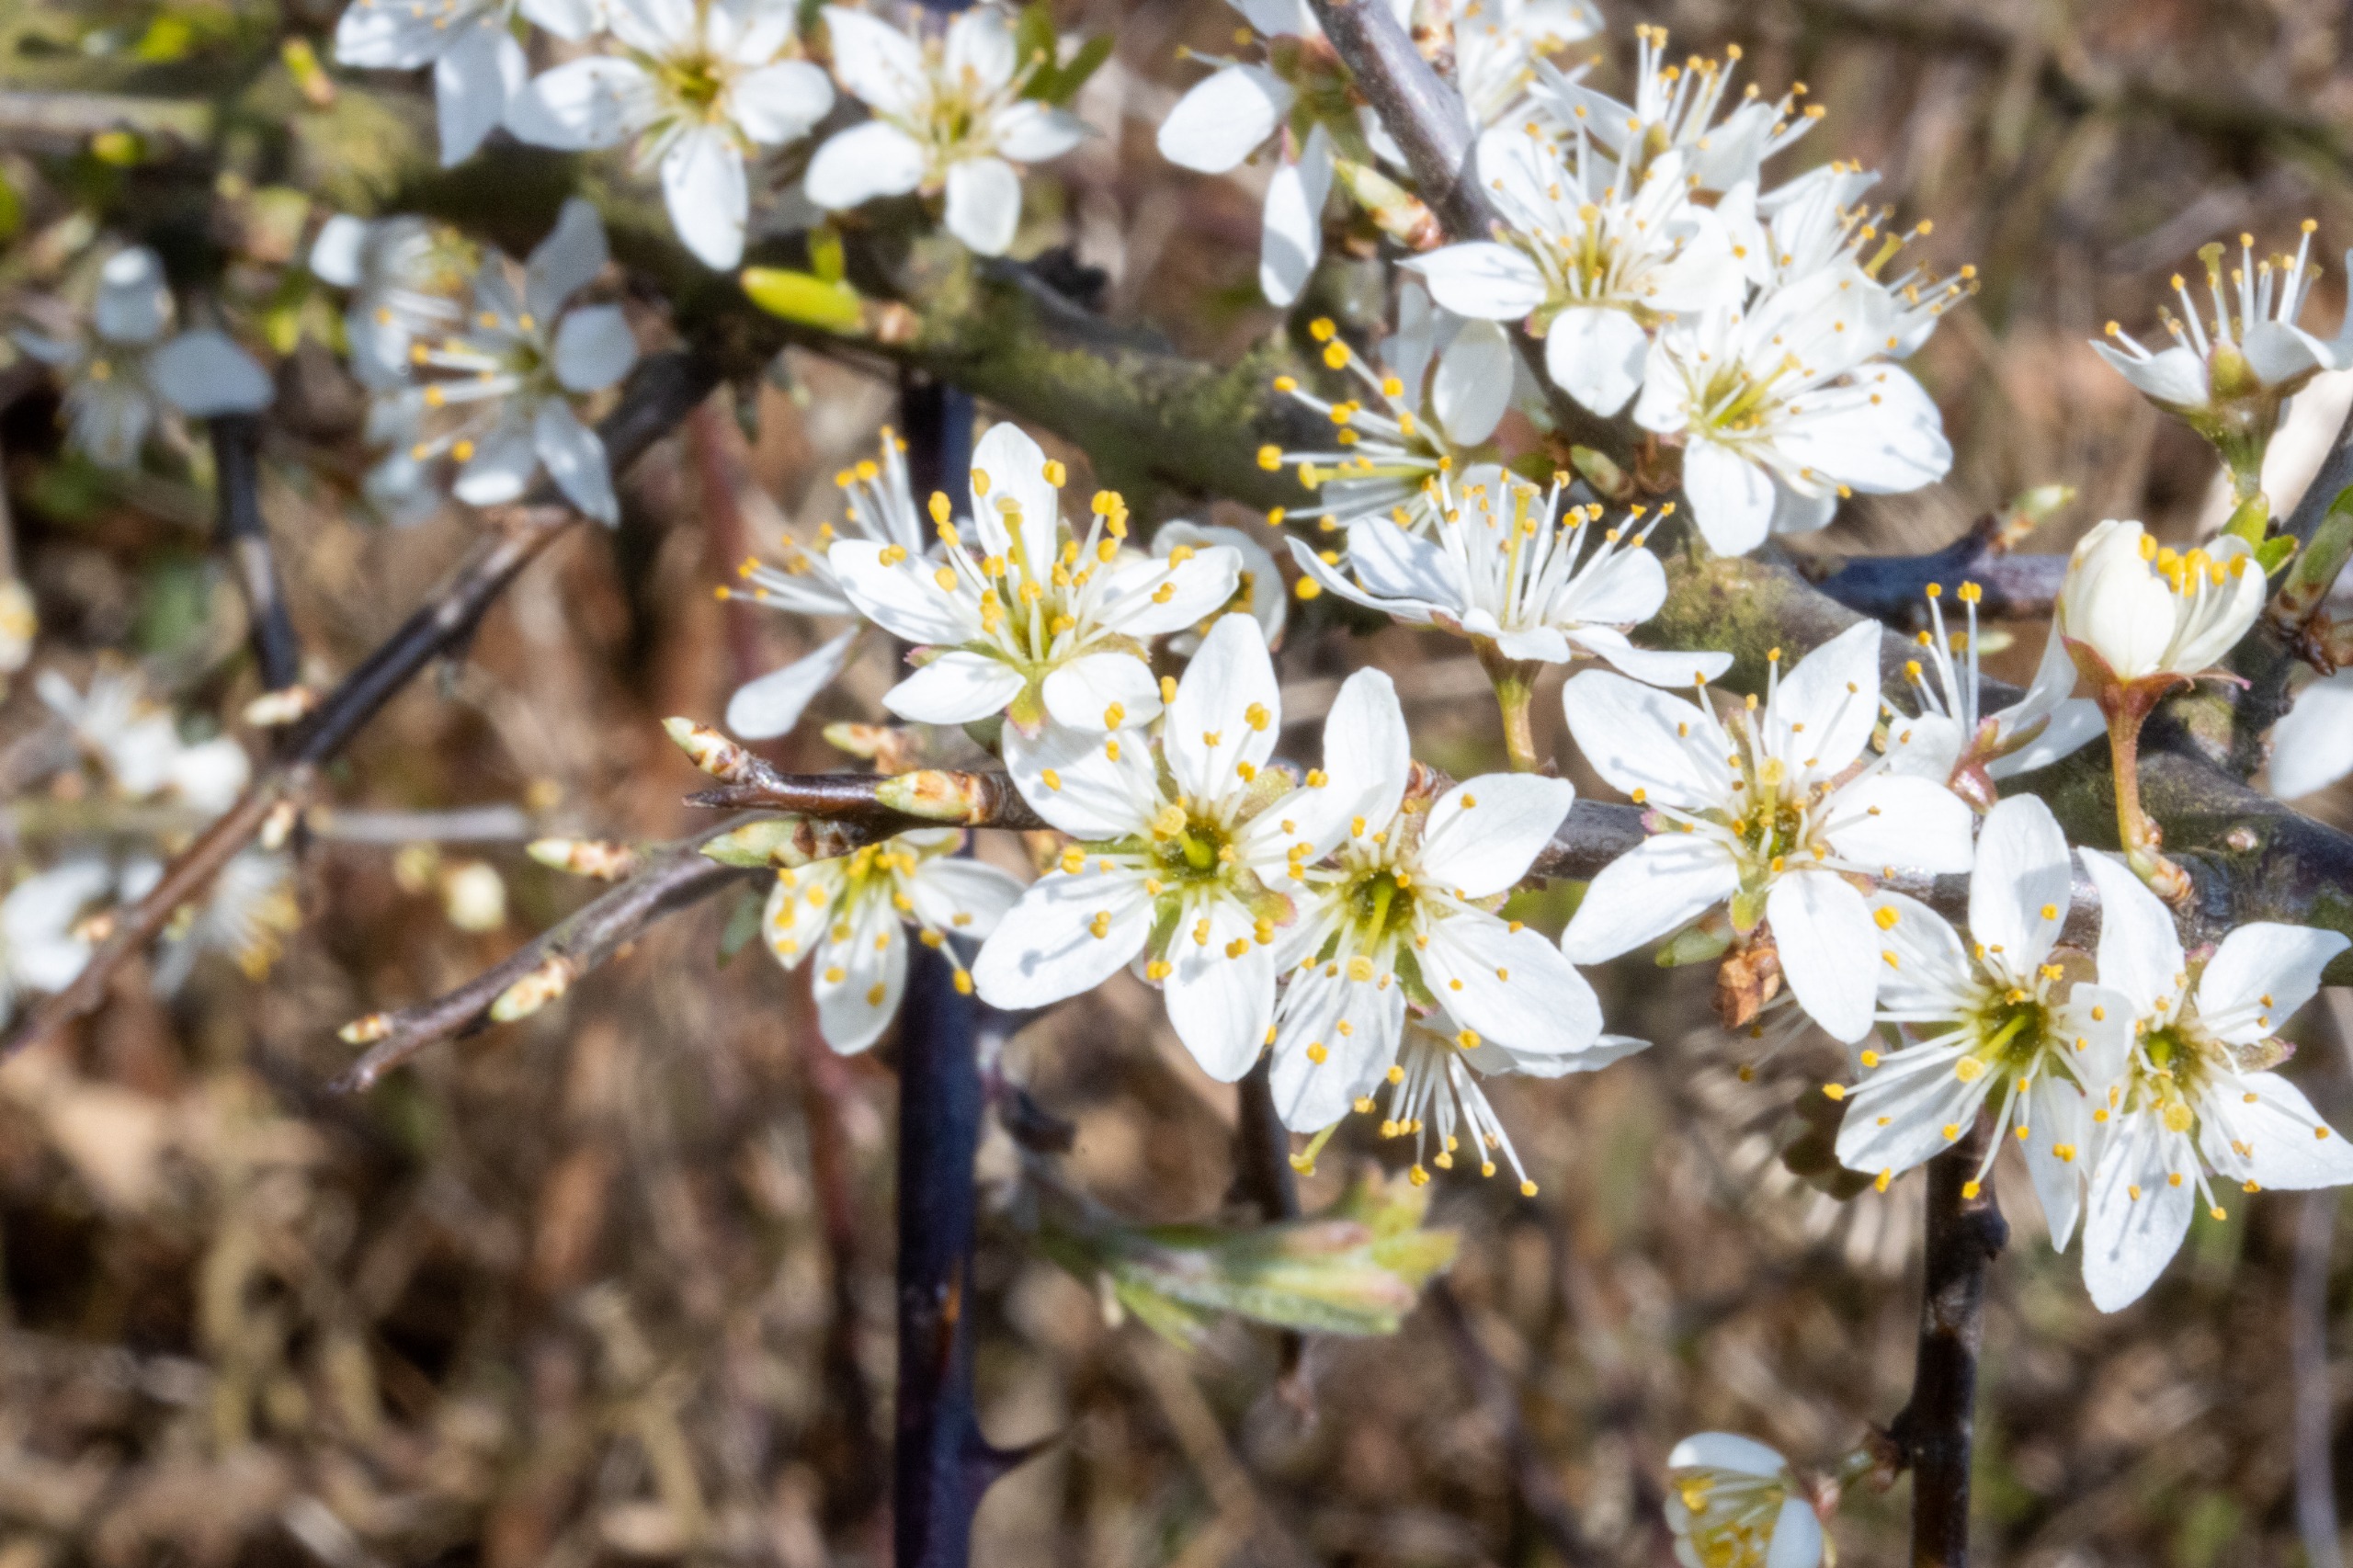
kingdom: Plantae
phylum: Tracheophyta
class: Magnoliopsida
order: Rosales
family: Rosaceae
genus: Prunus
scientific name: Prunus spinosa
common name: Slåen
